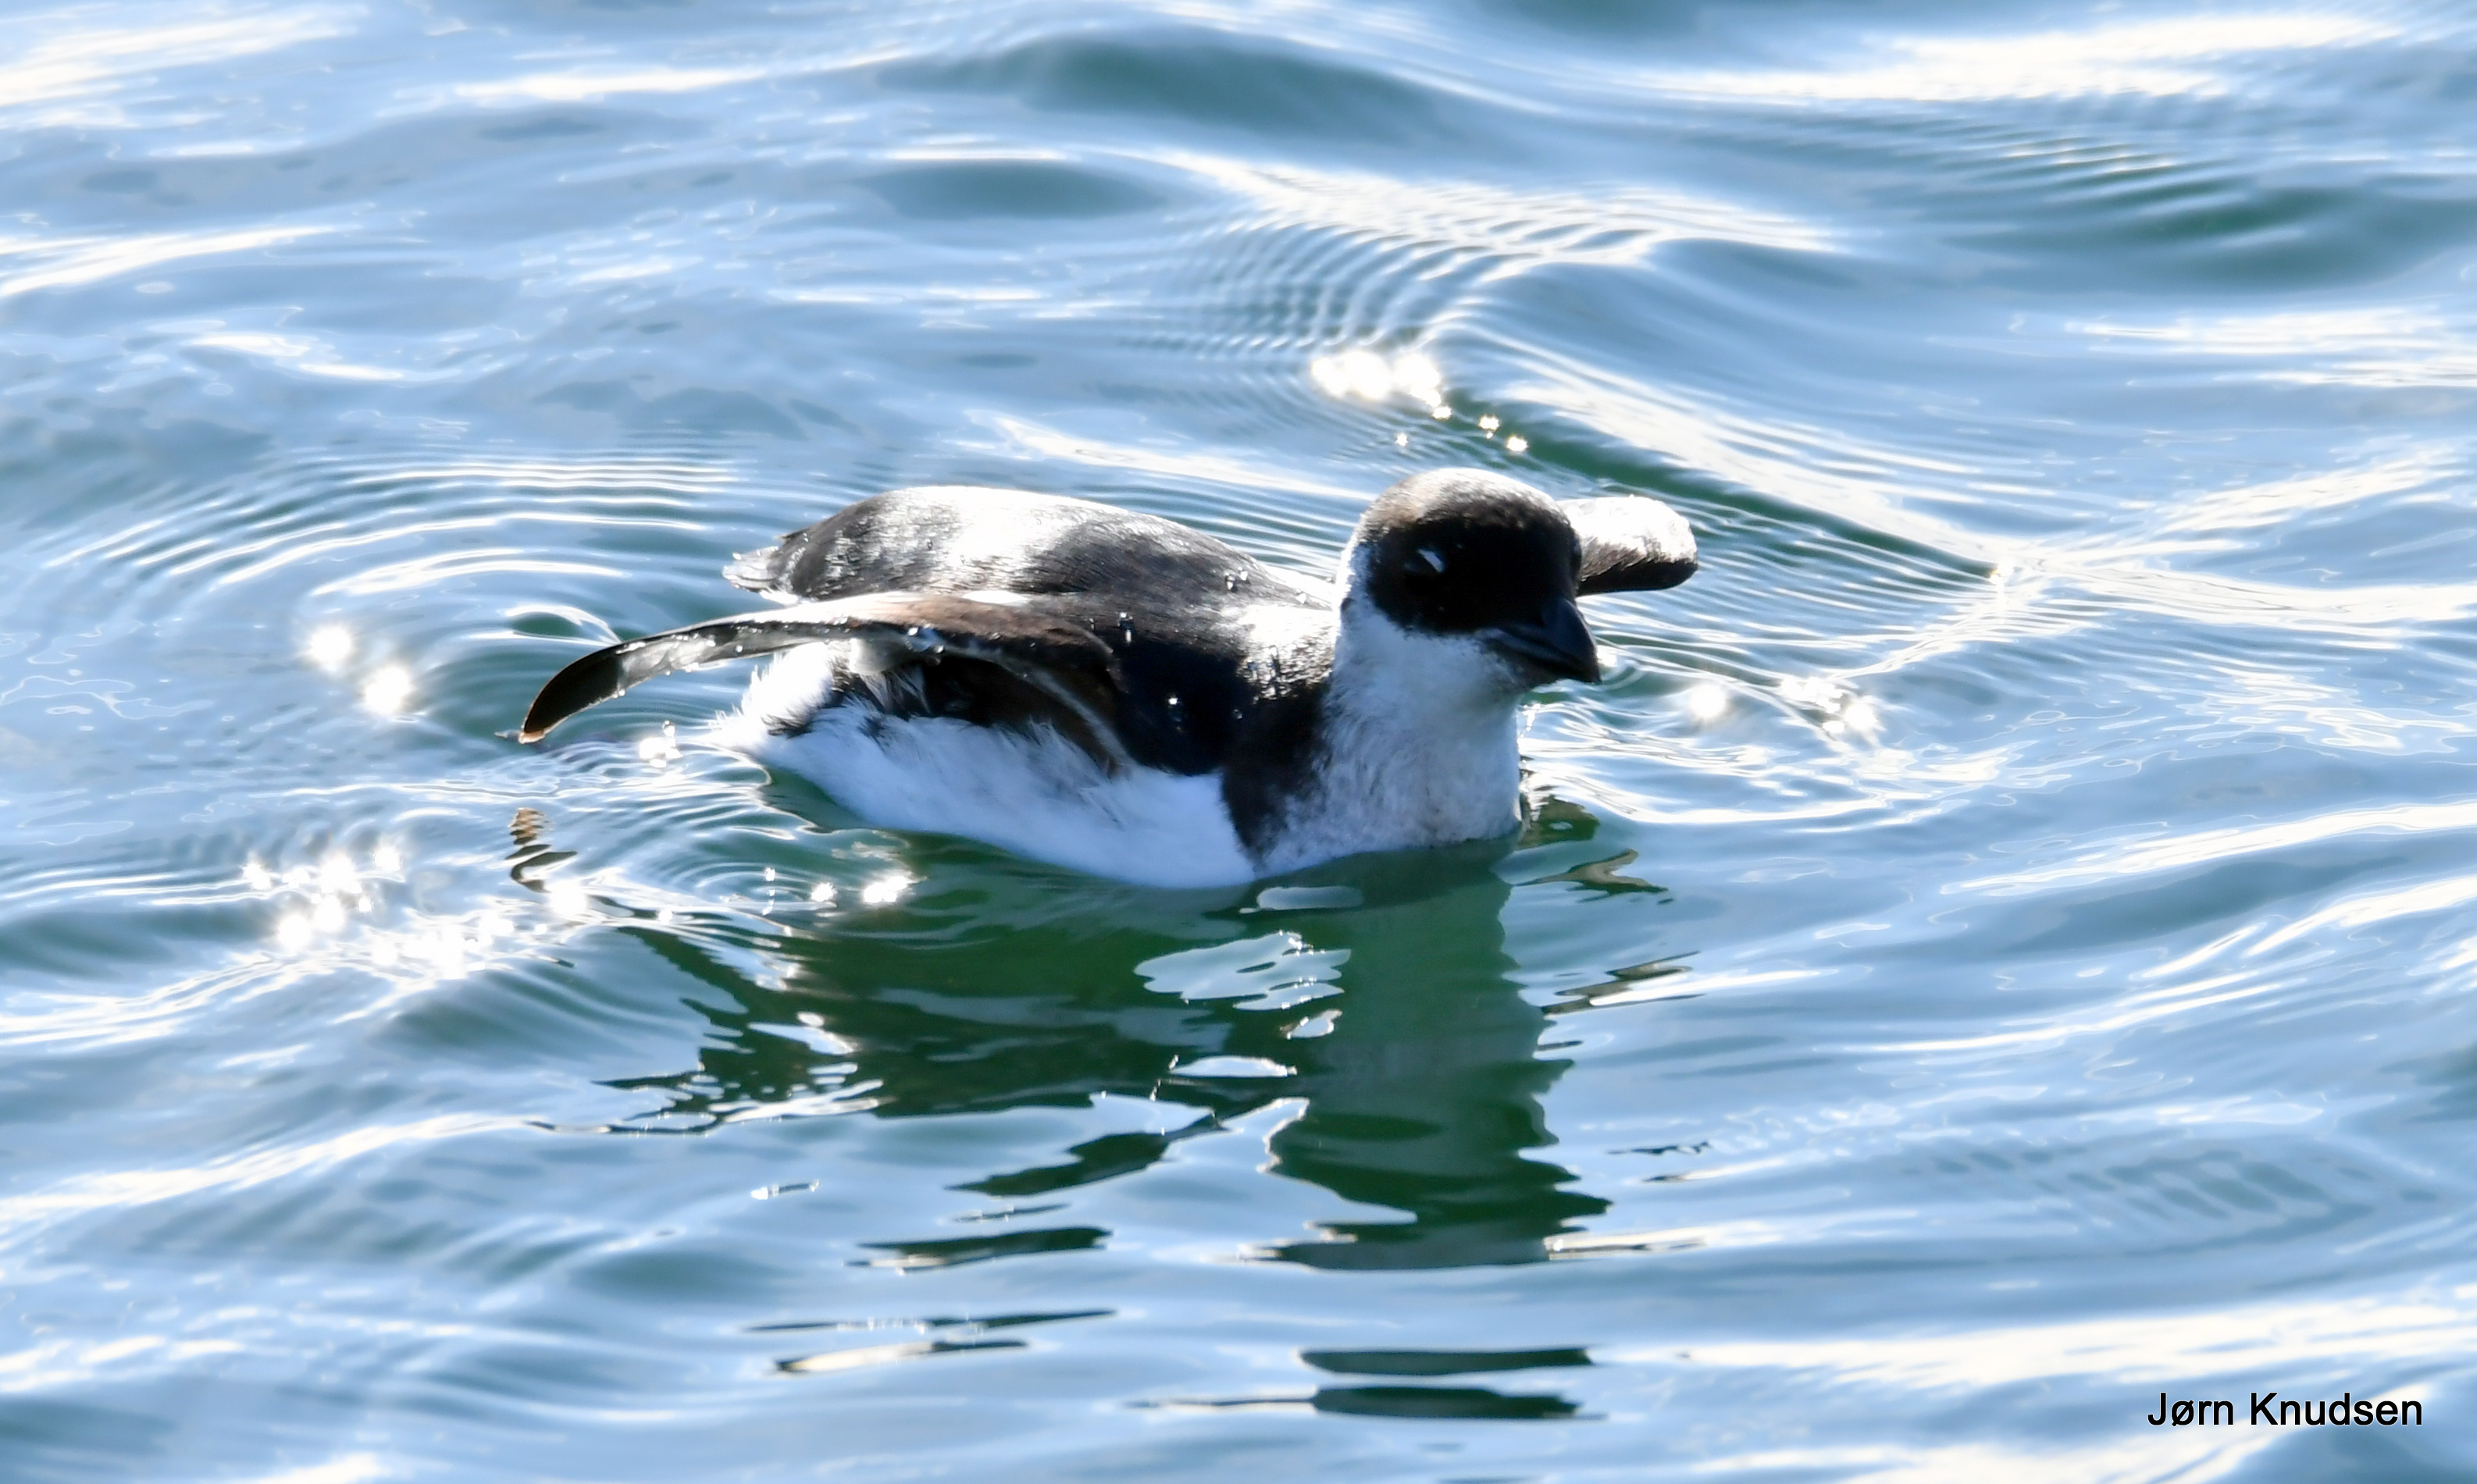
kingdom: Animalia
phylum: Chordata
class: Aves
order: Charadriiformes
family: Alcidae
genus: Alle
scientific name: Alle alle
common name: Søkonge
